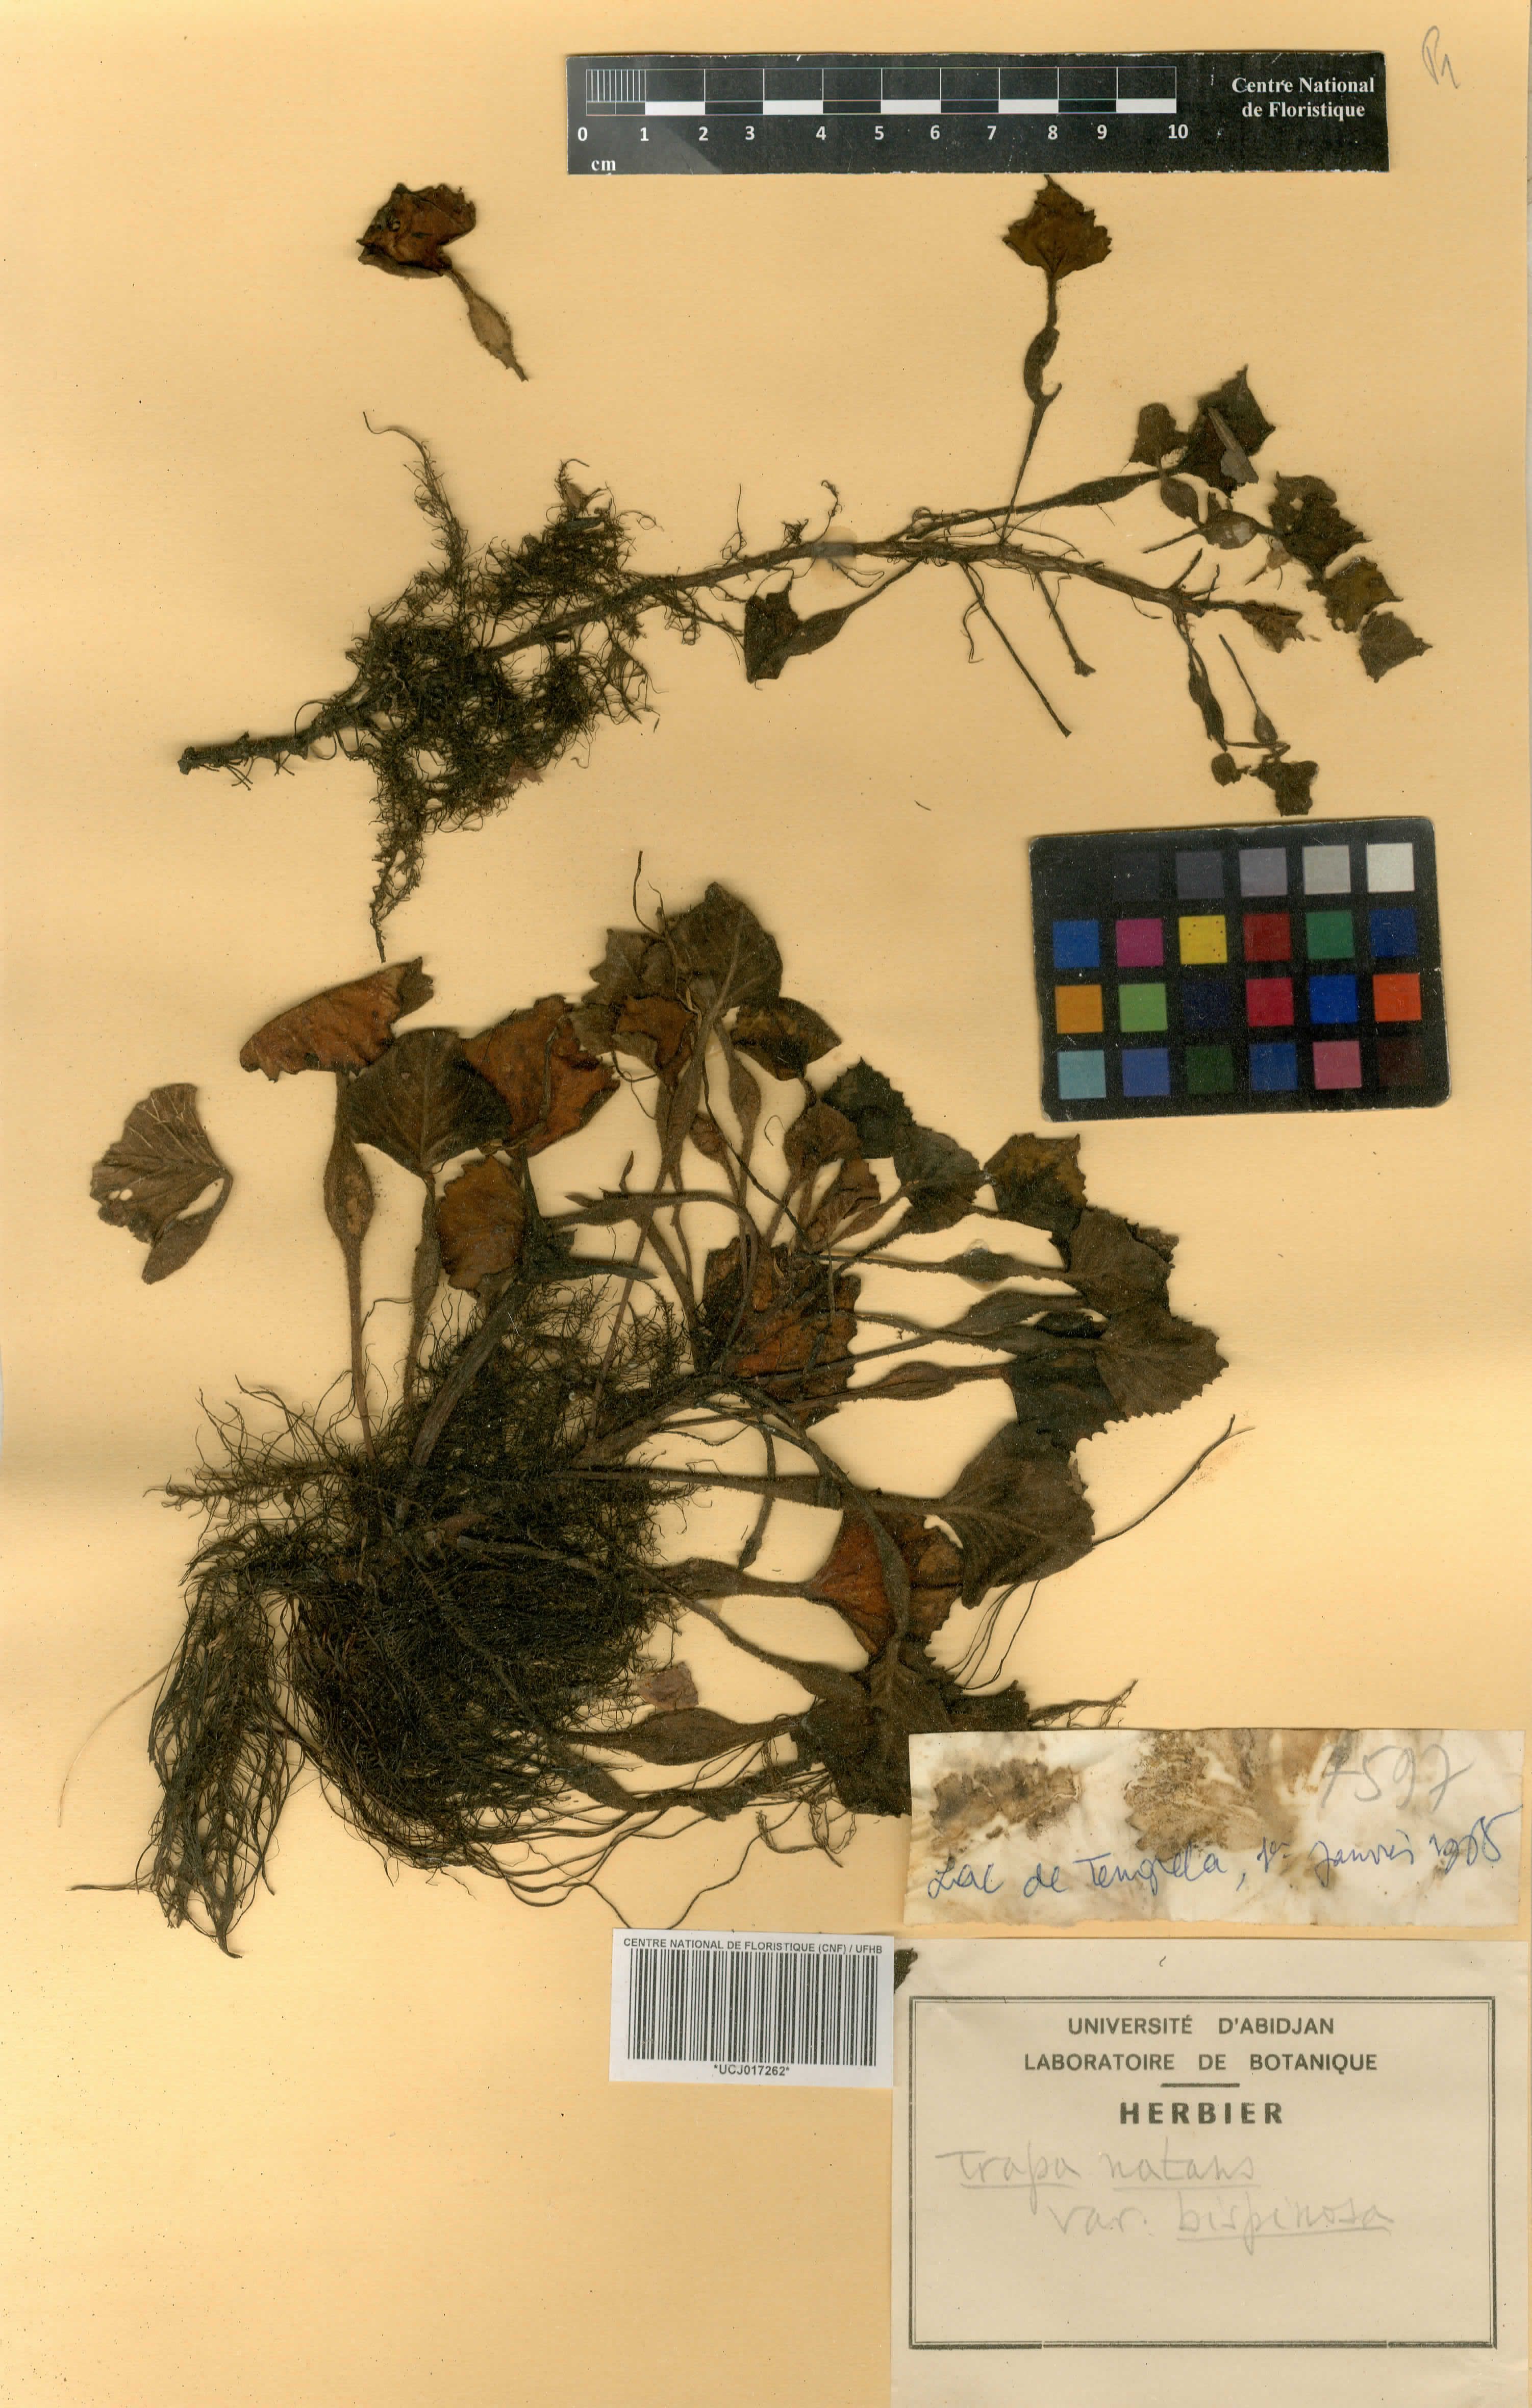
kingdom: Plantae
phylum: Tracheophyta
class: Magnoliopsida
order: Myrtales
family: Lythraceae
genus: Trapa
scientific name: Trapa natans
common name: Water chestnut
